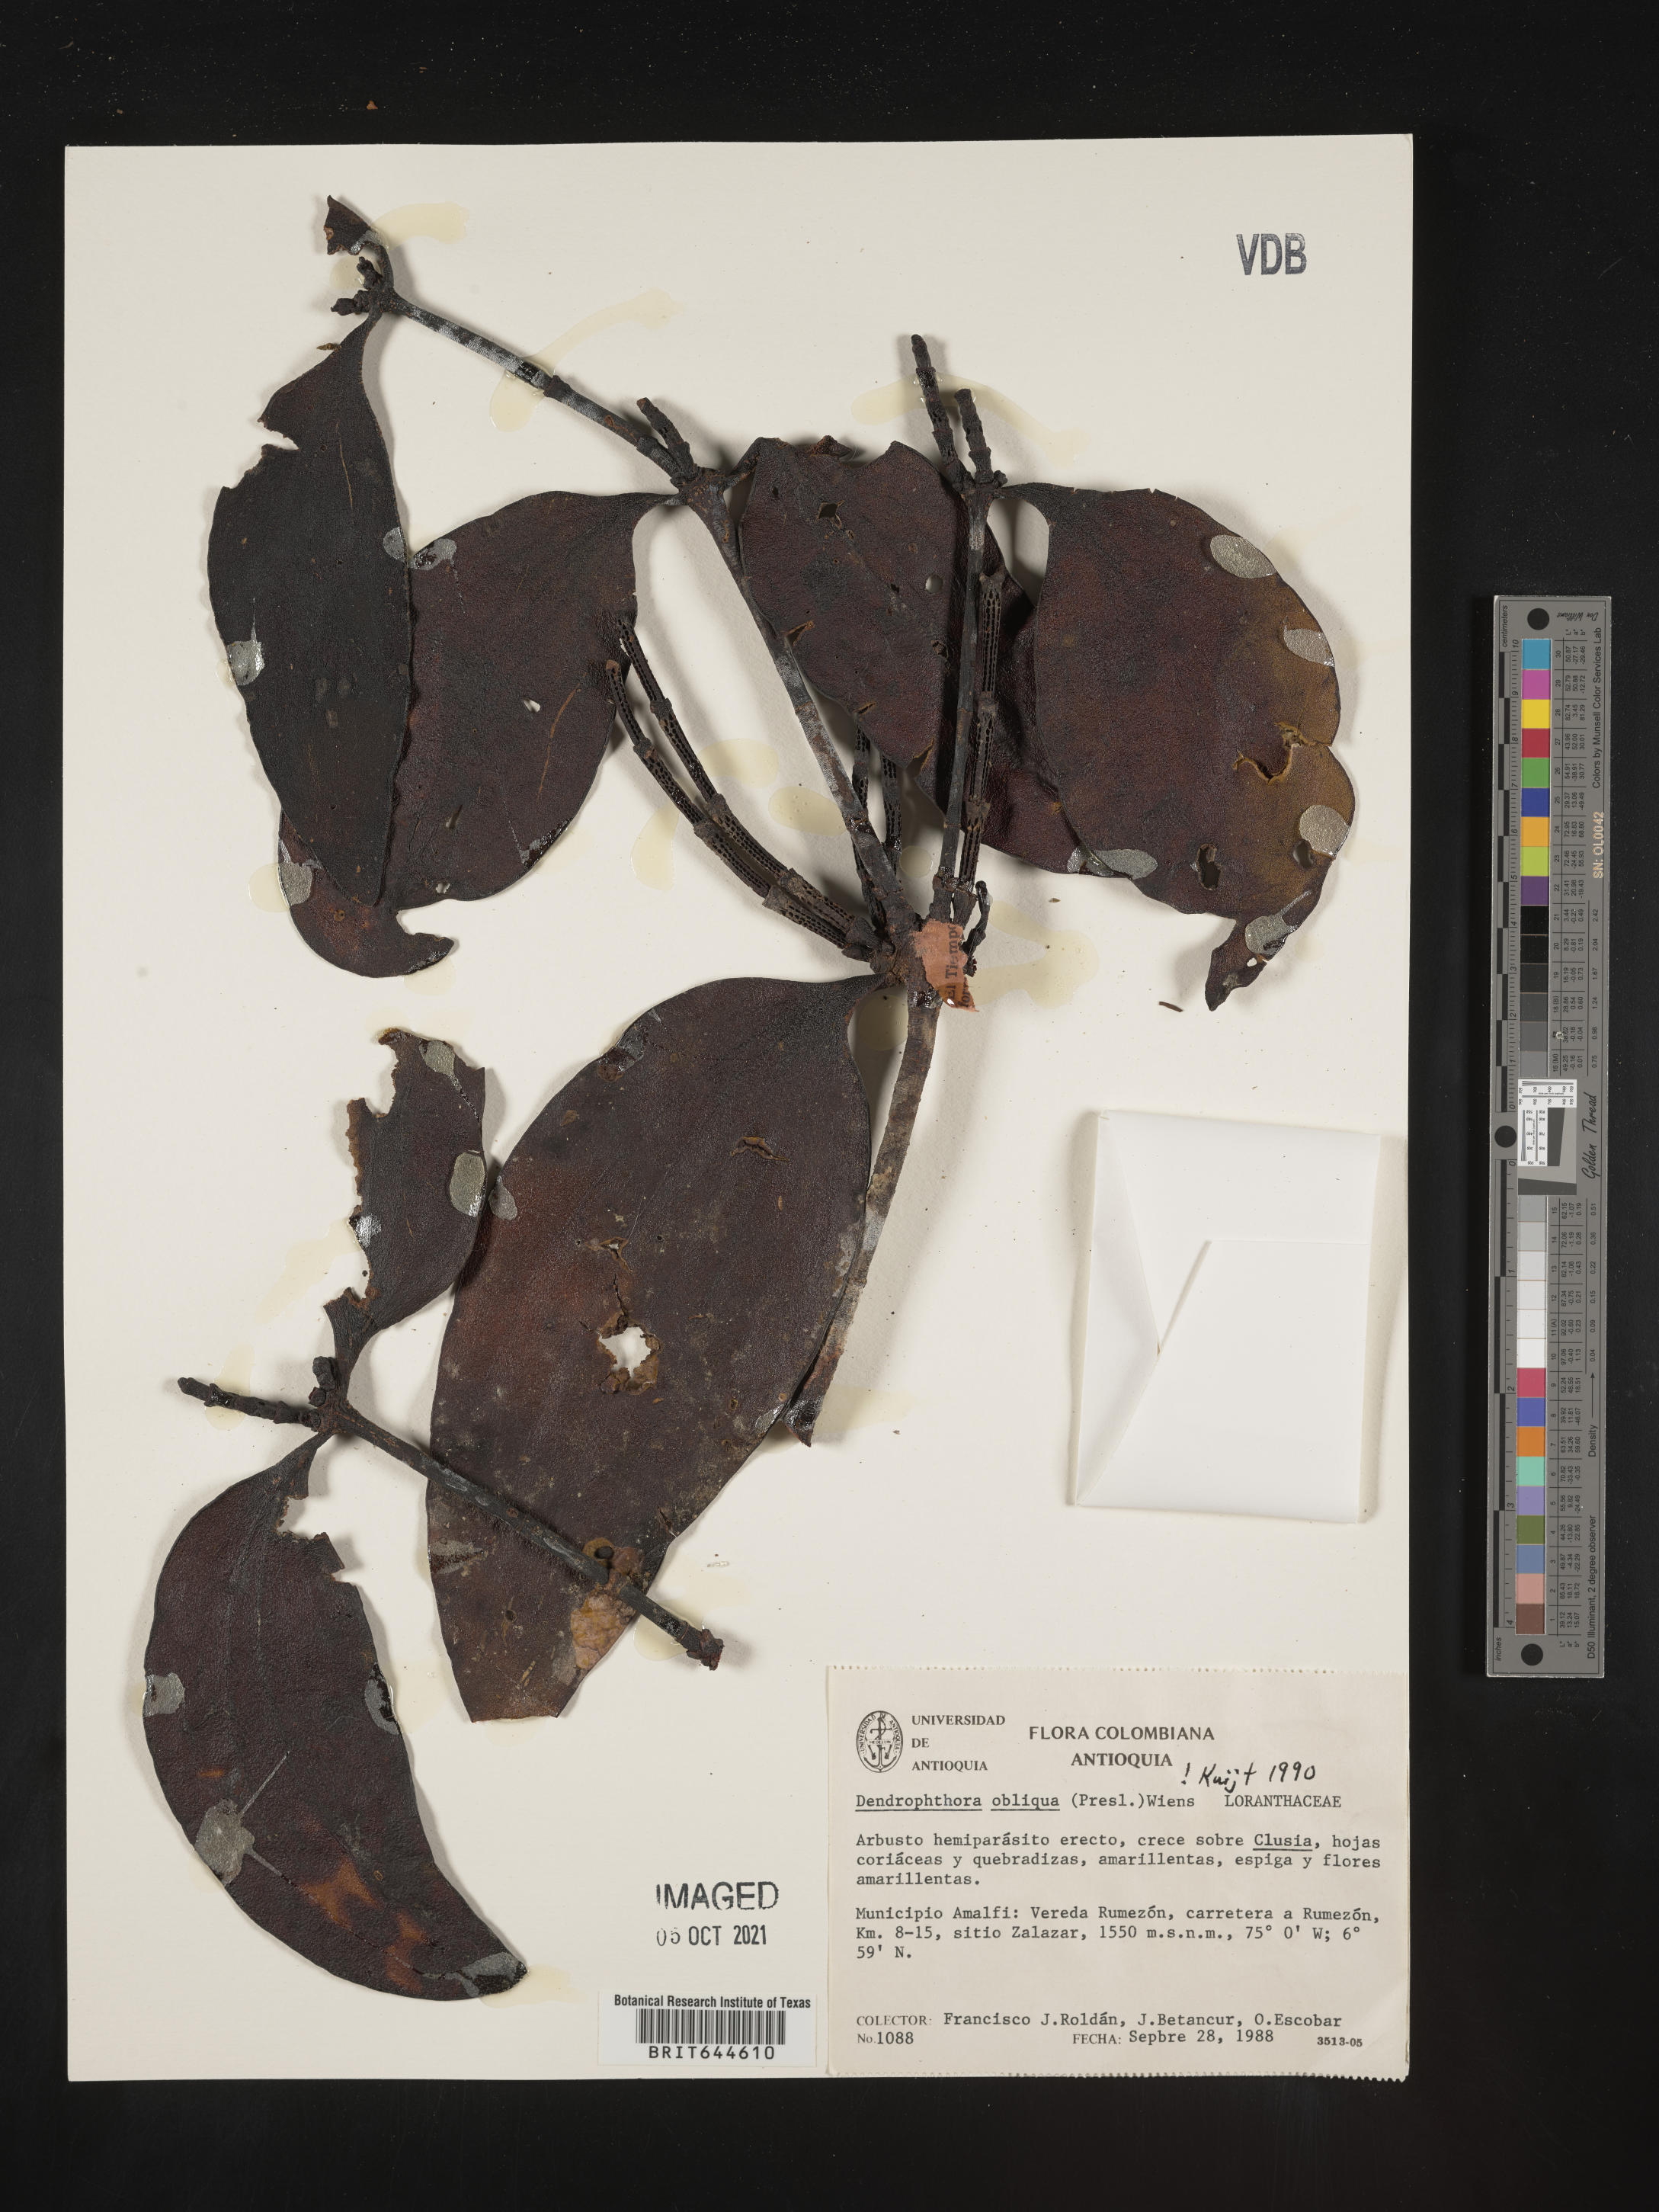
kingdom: Plantae
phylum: Tracheophyta
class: Magnoliopsida
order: Santalales
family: Viscaceae
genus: Dendrophthora
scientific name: Dendrophthora
